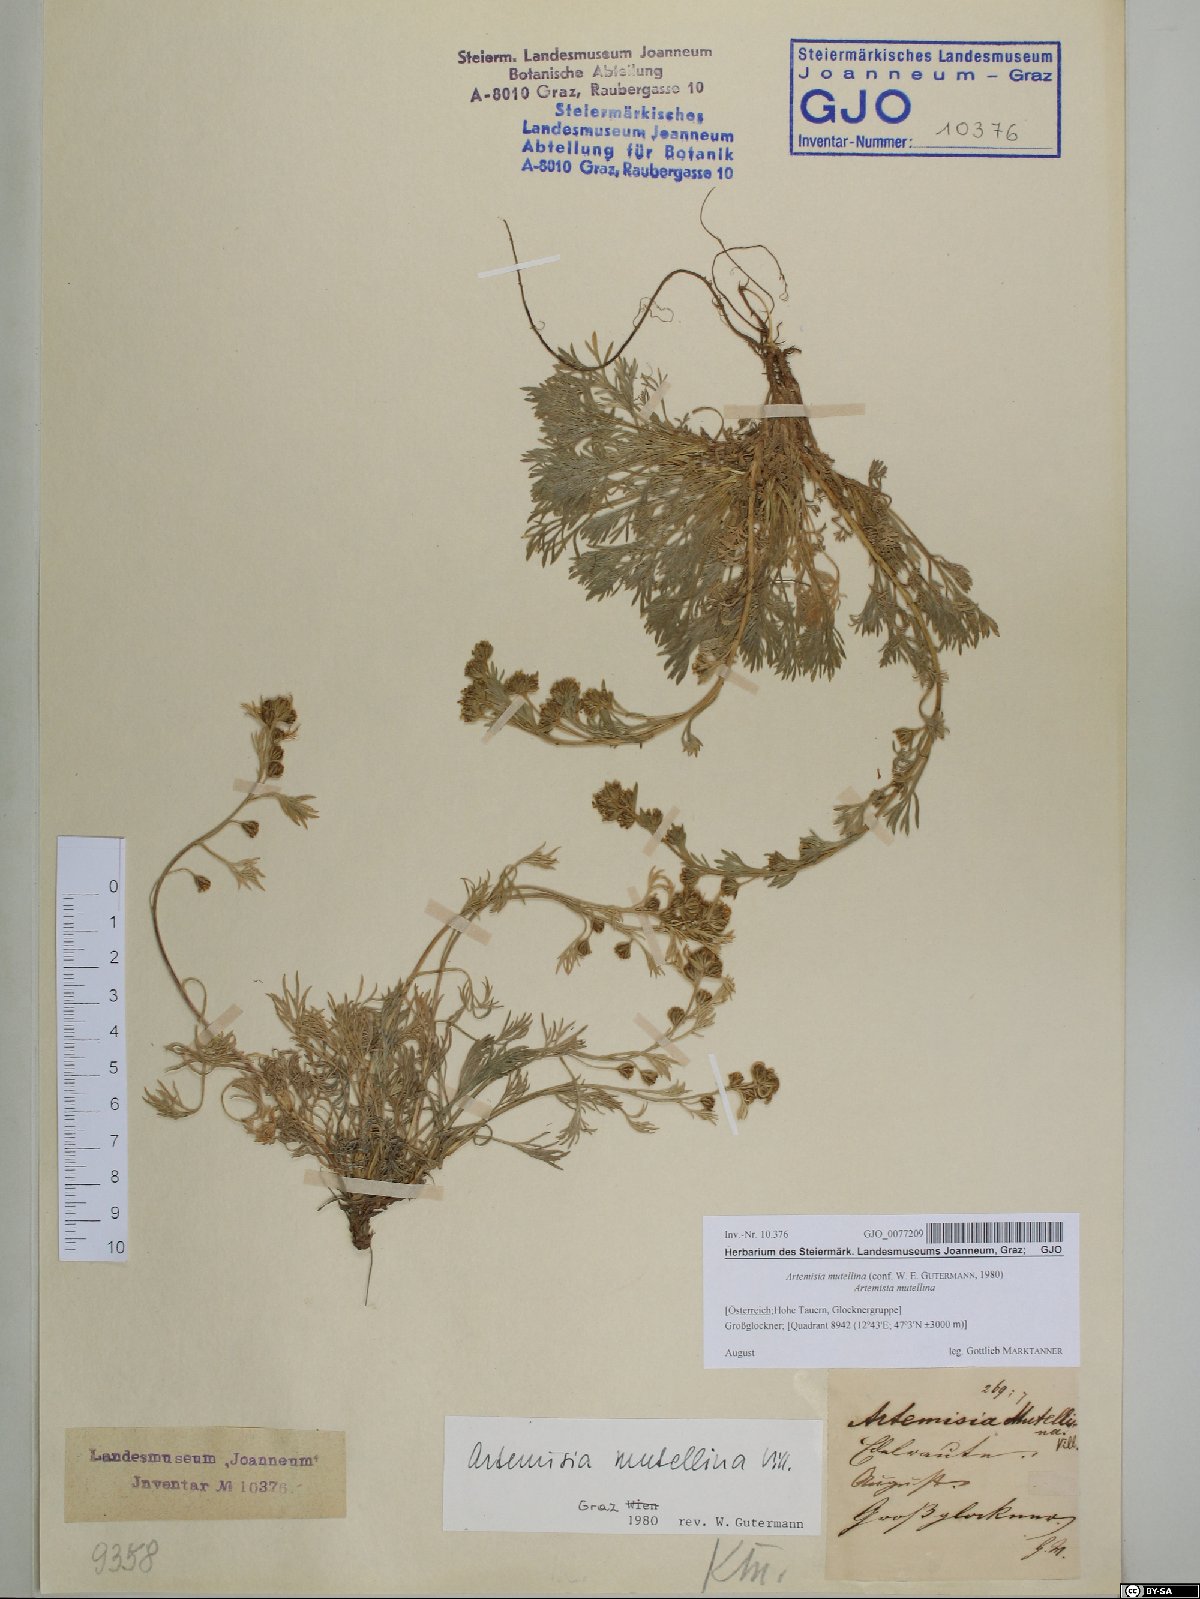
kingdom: Plantae
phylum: Tracheophyta
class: Magnoliopsida
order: Asterales
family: Asteraceae
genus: Artemisia
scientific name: Artemisia mutellina
